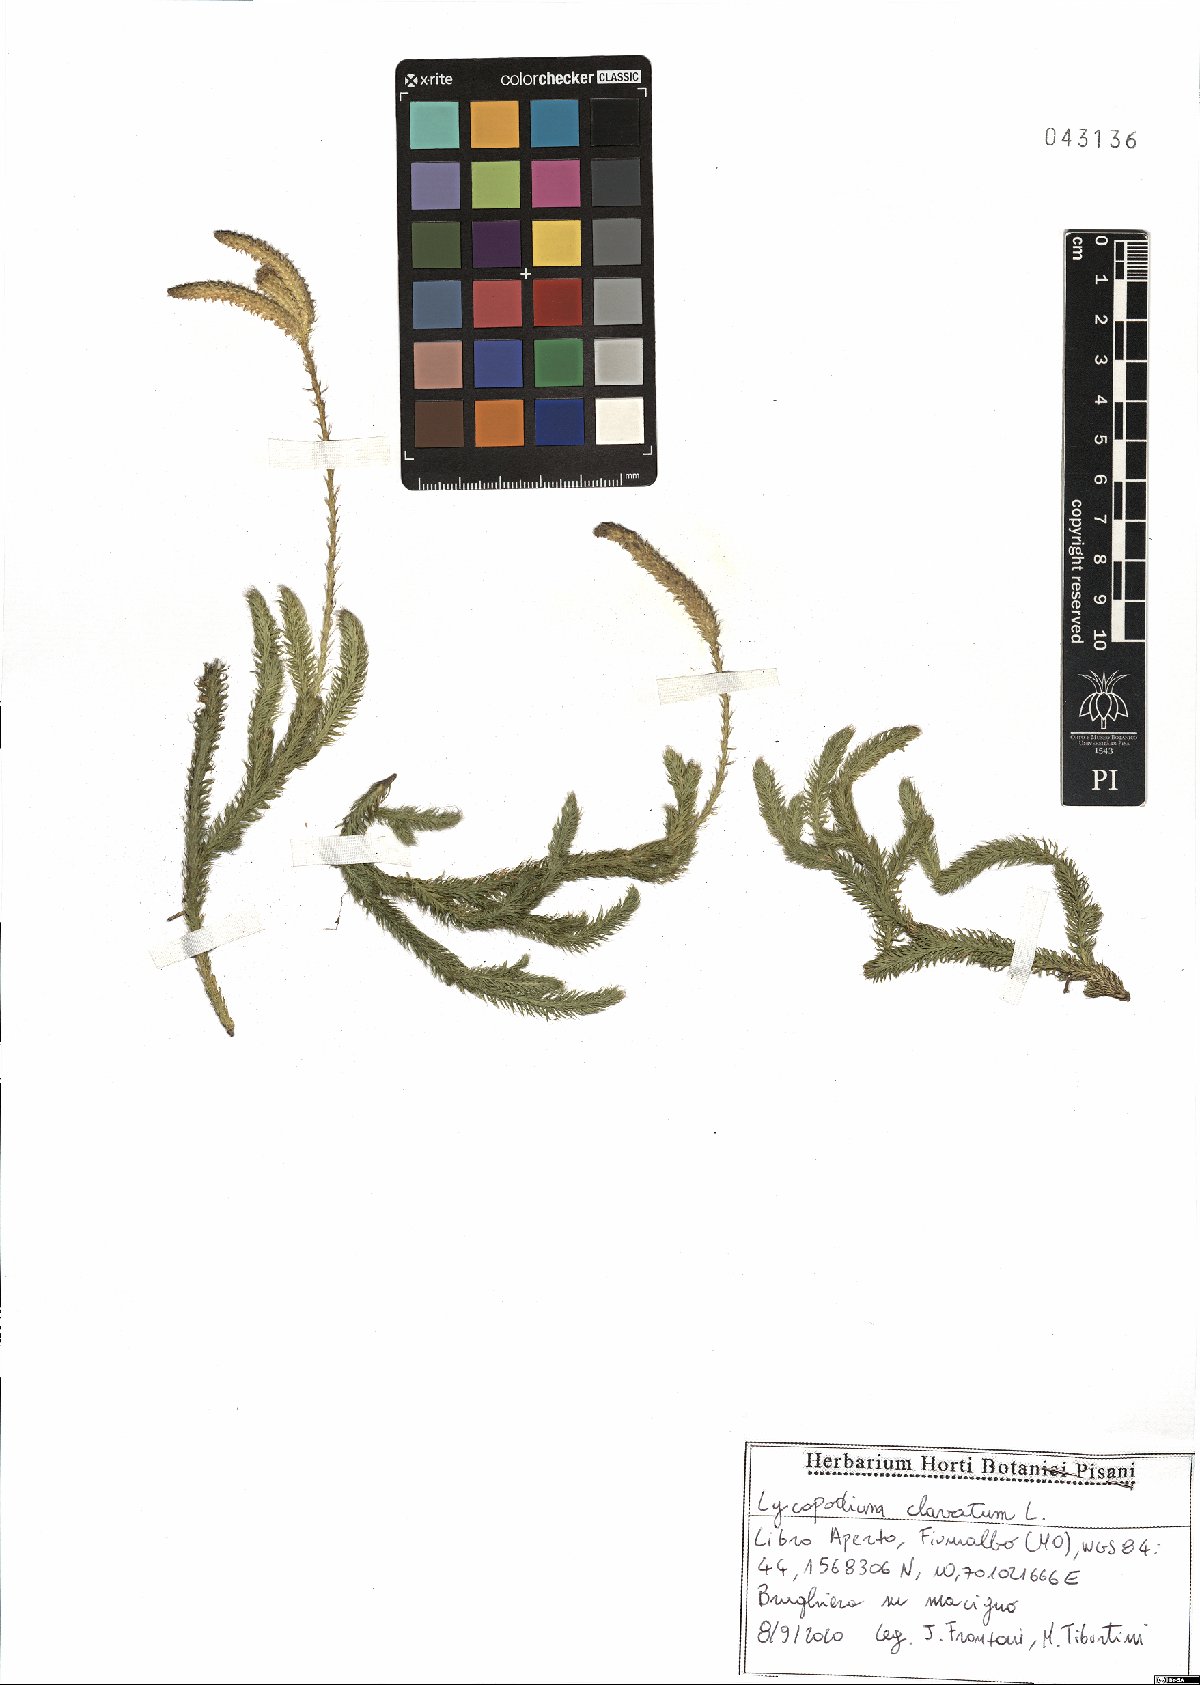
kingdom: Plantae
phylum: Tracheophyta
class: Lycopodiopsida
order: Lycopodiales
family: Lycopodiaceae
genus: Lycopodium
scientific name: Lycopodium clavatum
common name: Stag's-horn clubmoss
